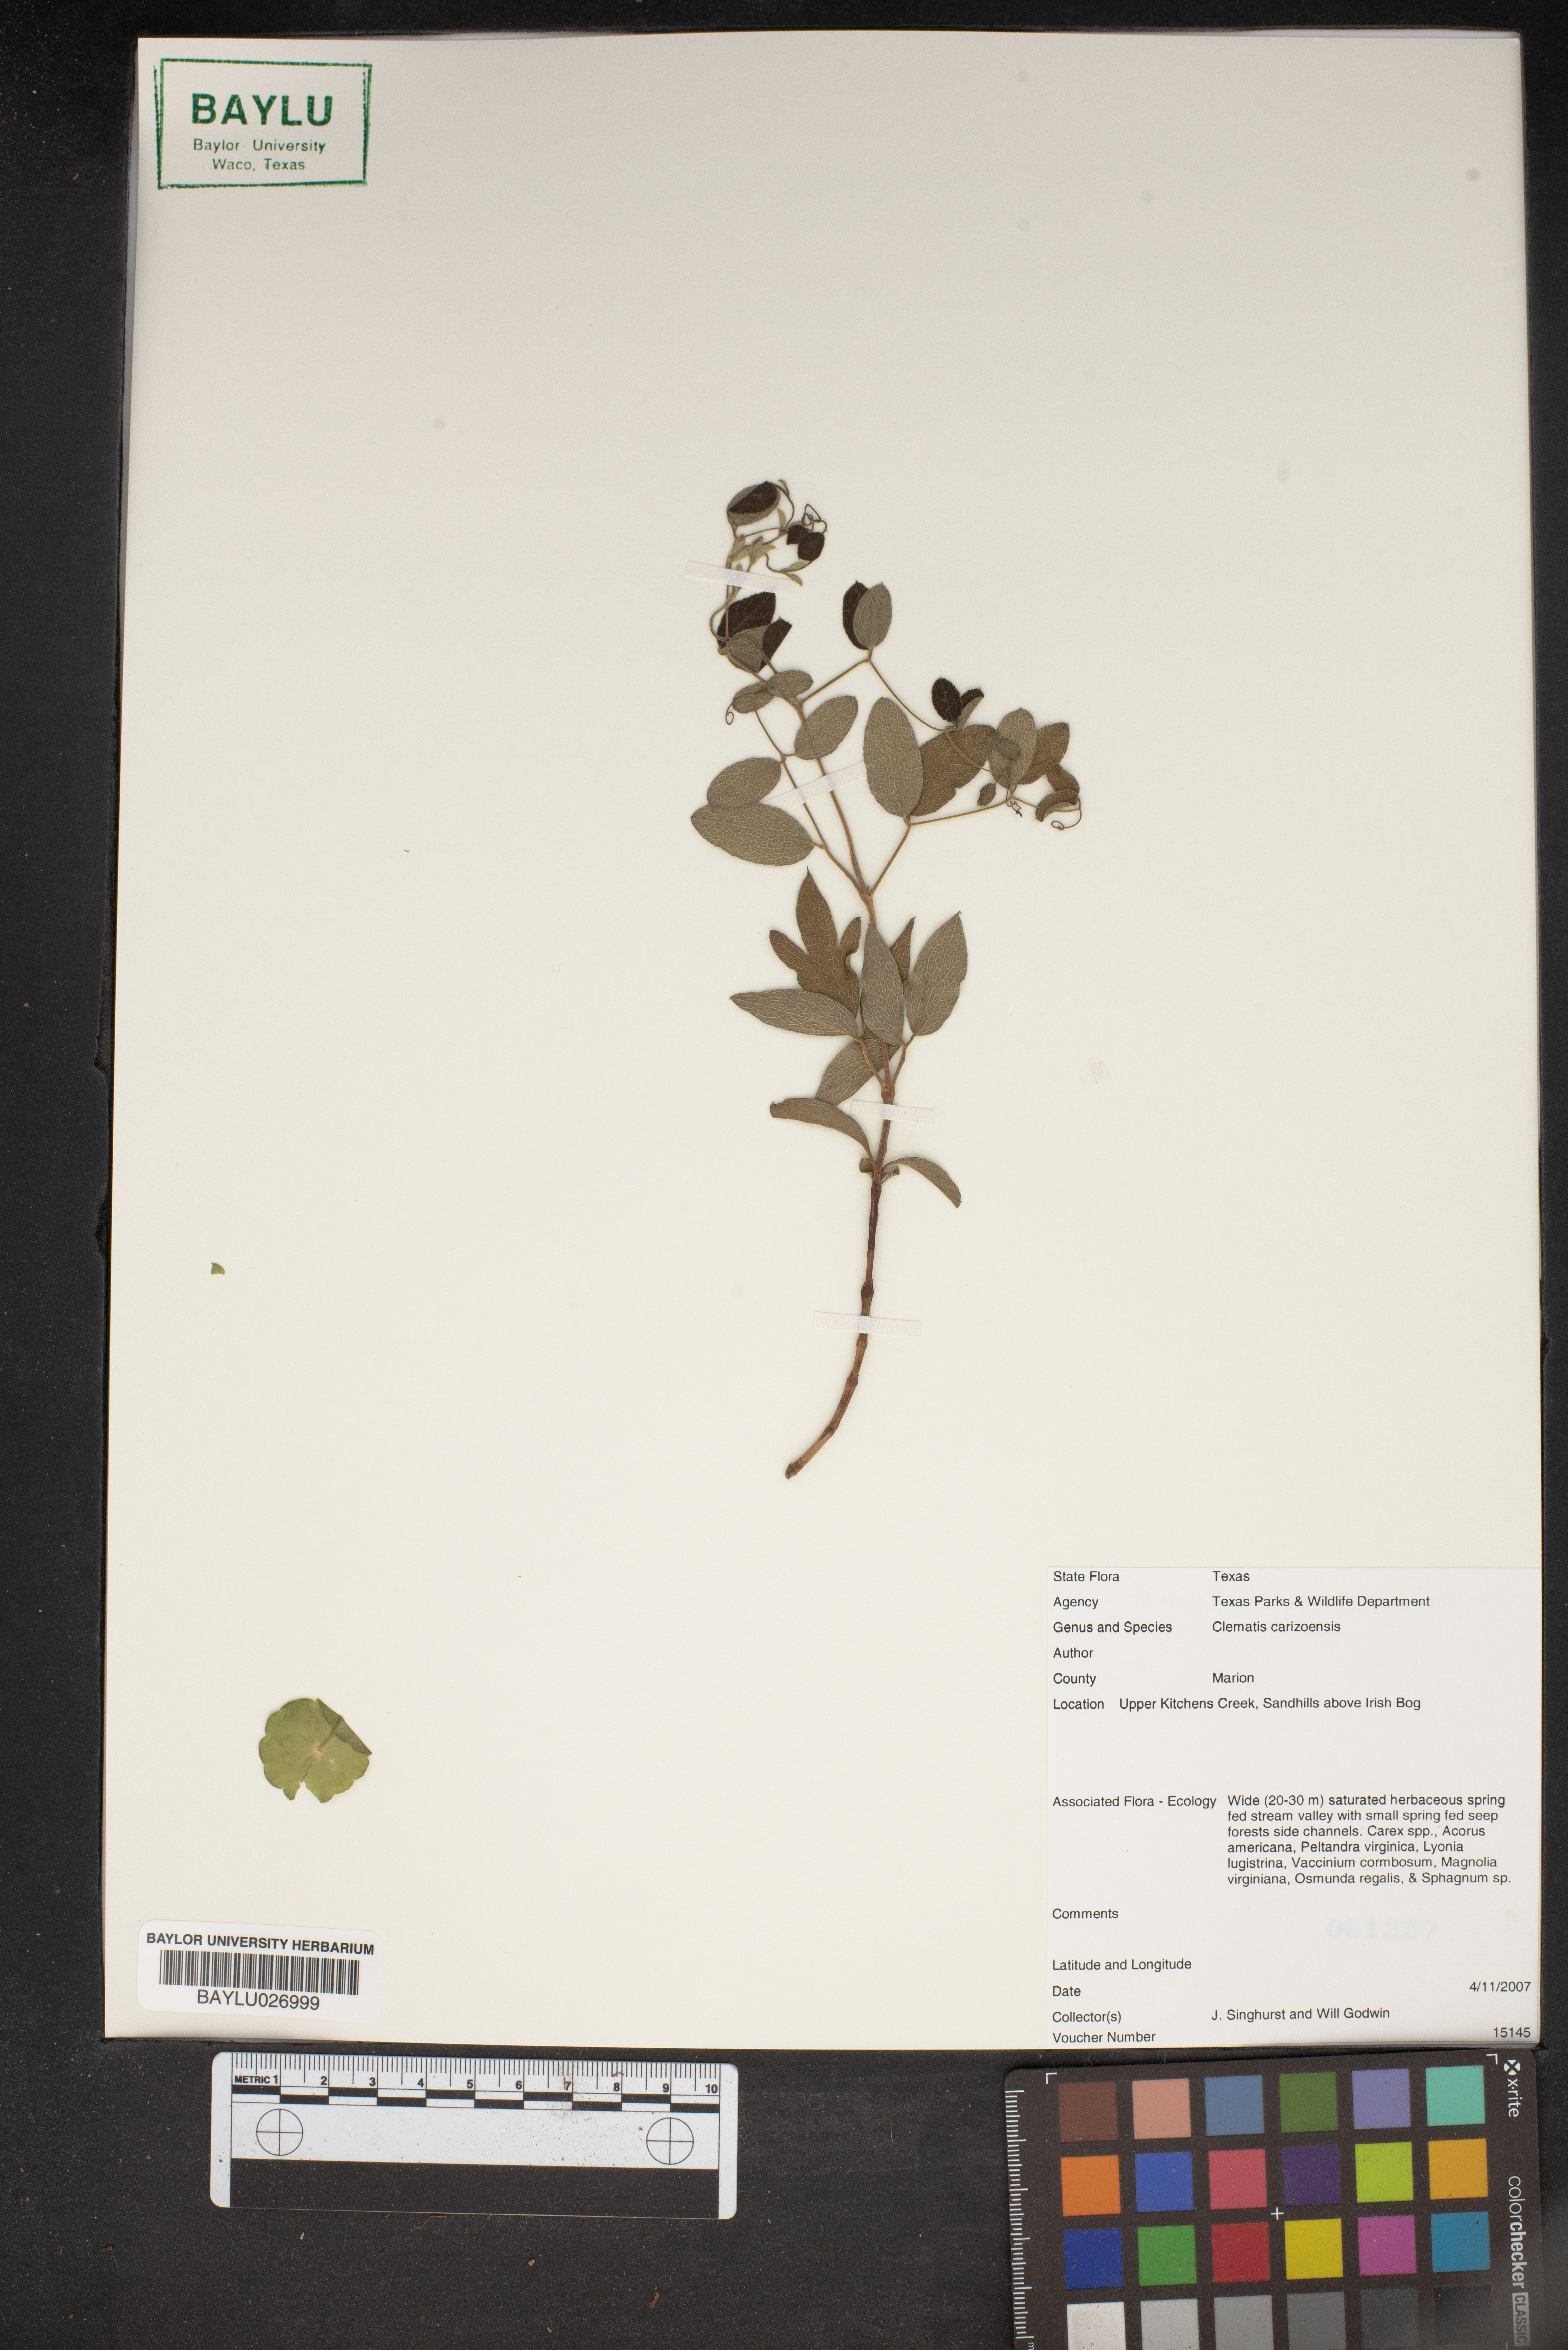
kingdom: Plantae
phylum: Tracheophyta
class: Magnoliopsida
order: Ranunculales
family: Ranunculaceae
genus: Clematis
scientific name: Clematis carrizoensis
